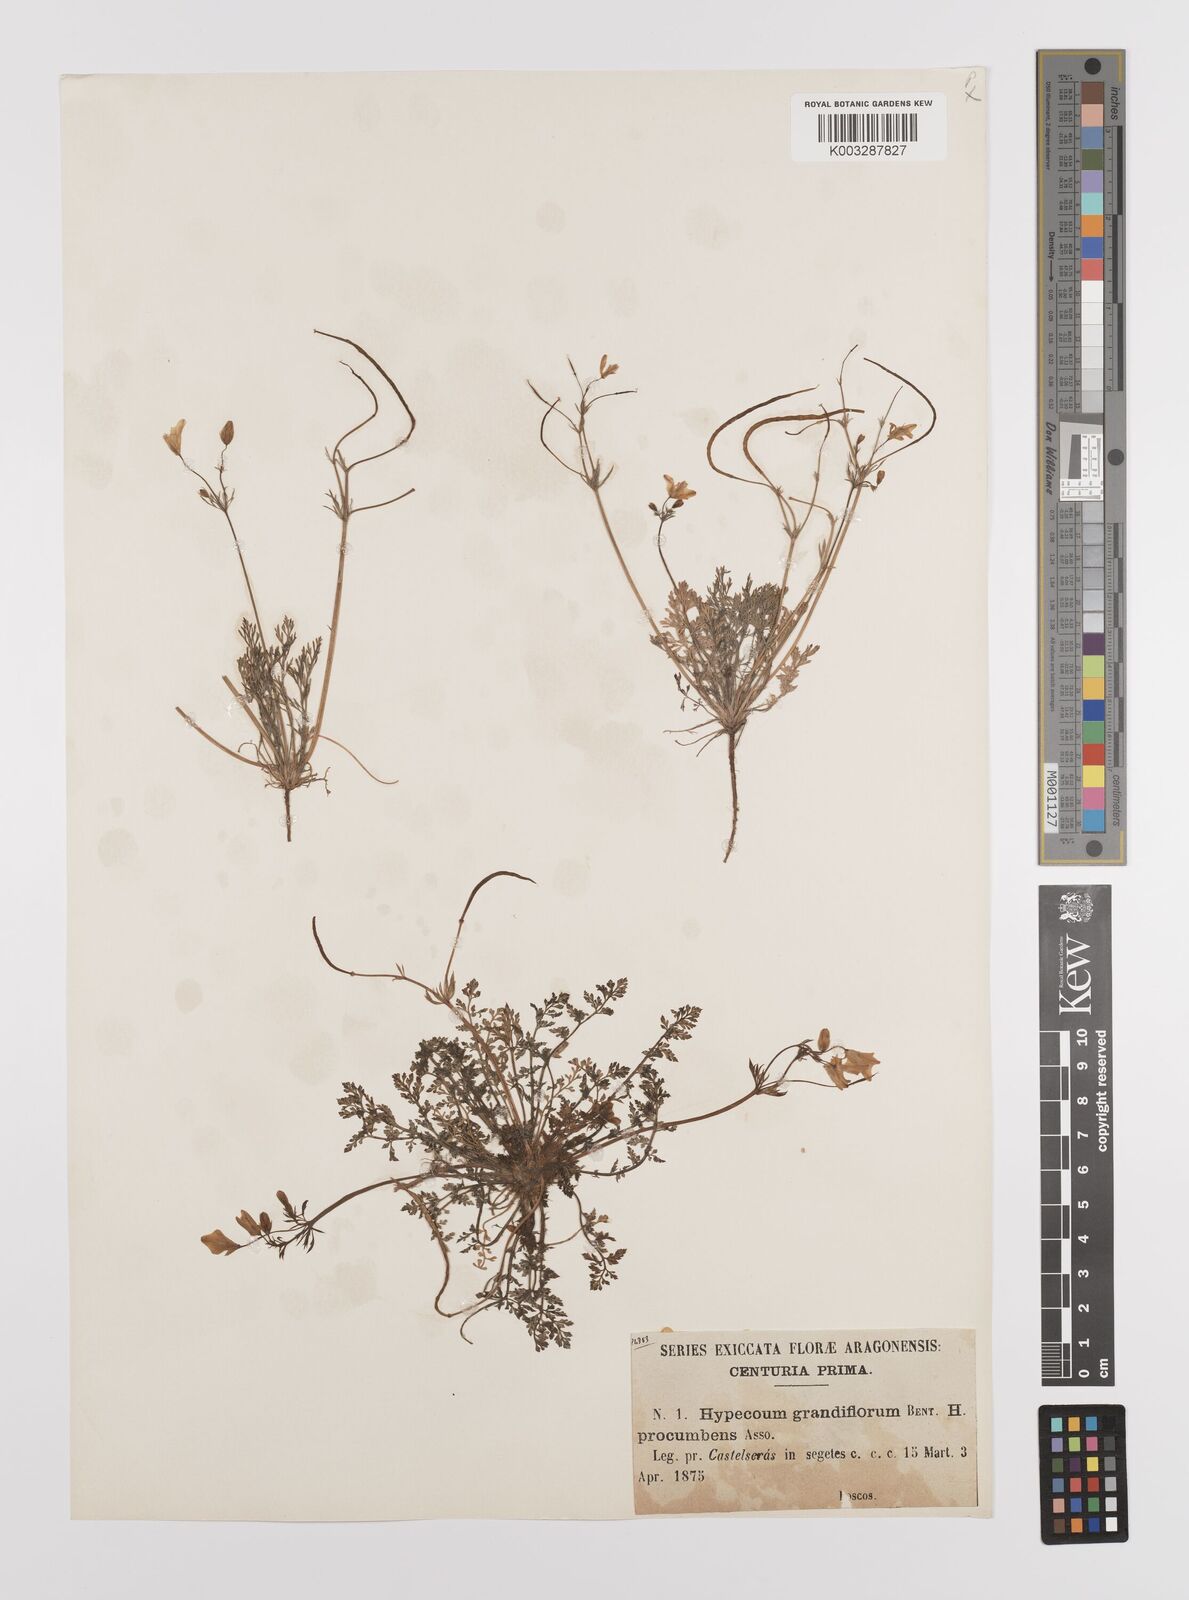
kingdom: Plantae
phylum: Tracheophyta
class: Magnoliopsida
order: Ranunculales
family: Papaveraceae
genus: Hypecoum
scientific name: Hypecoum imberbe
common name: Sicklefruit hypecoum
